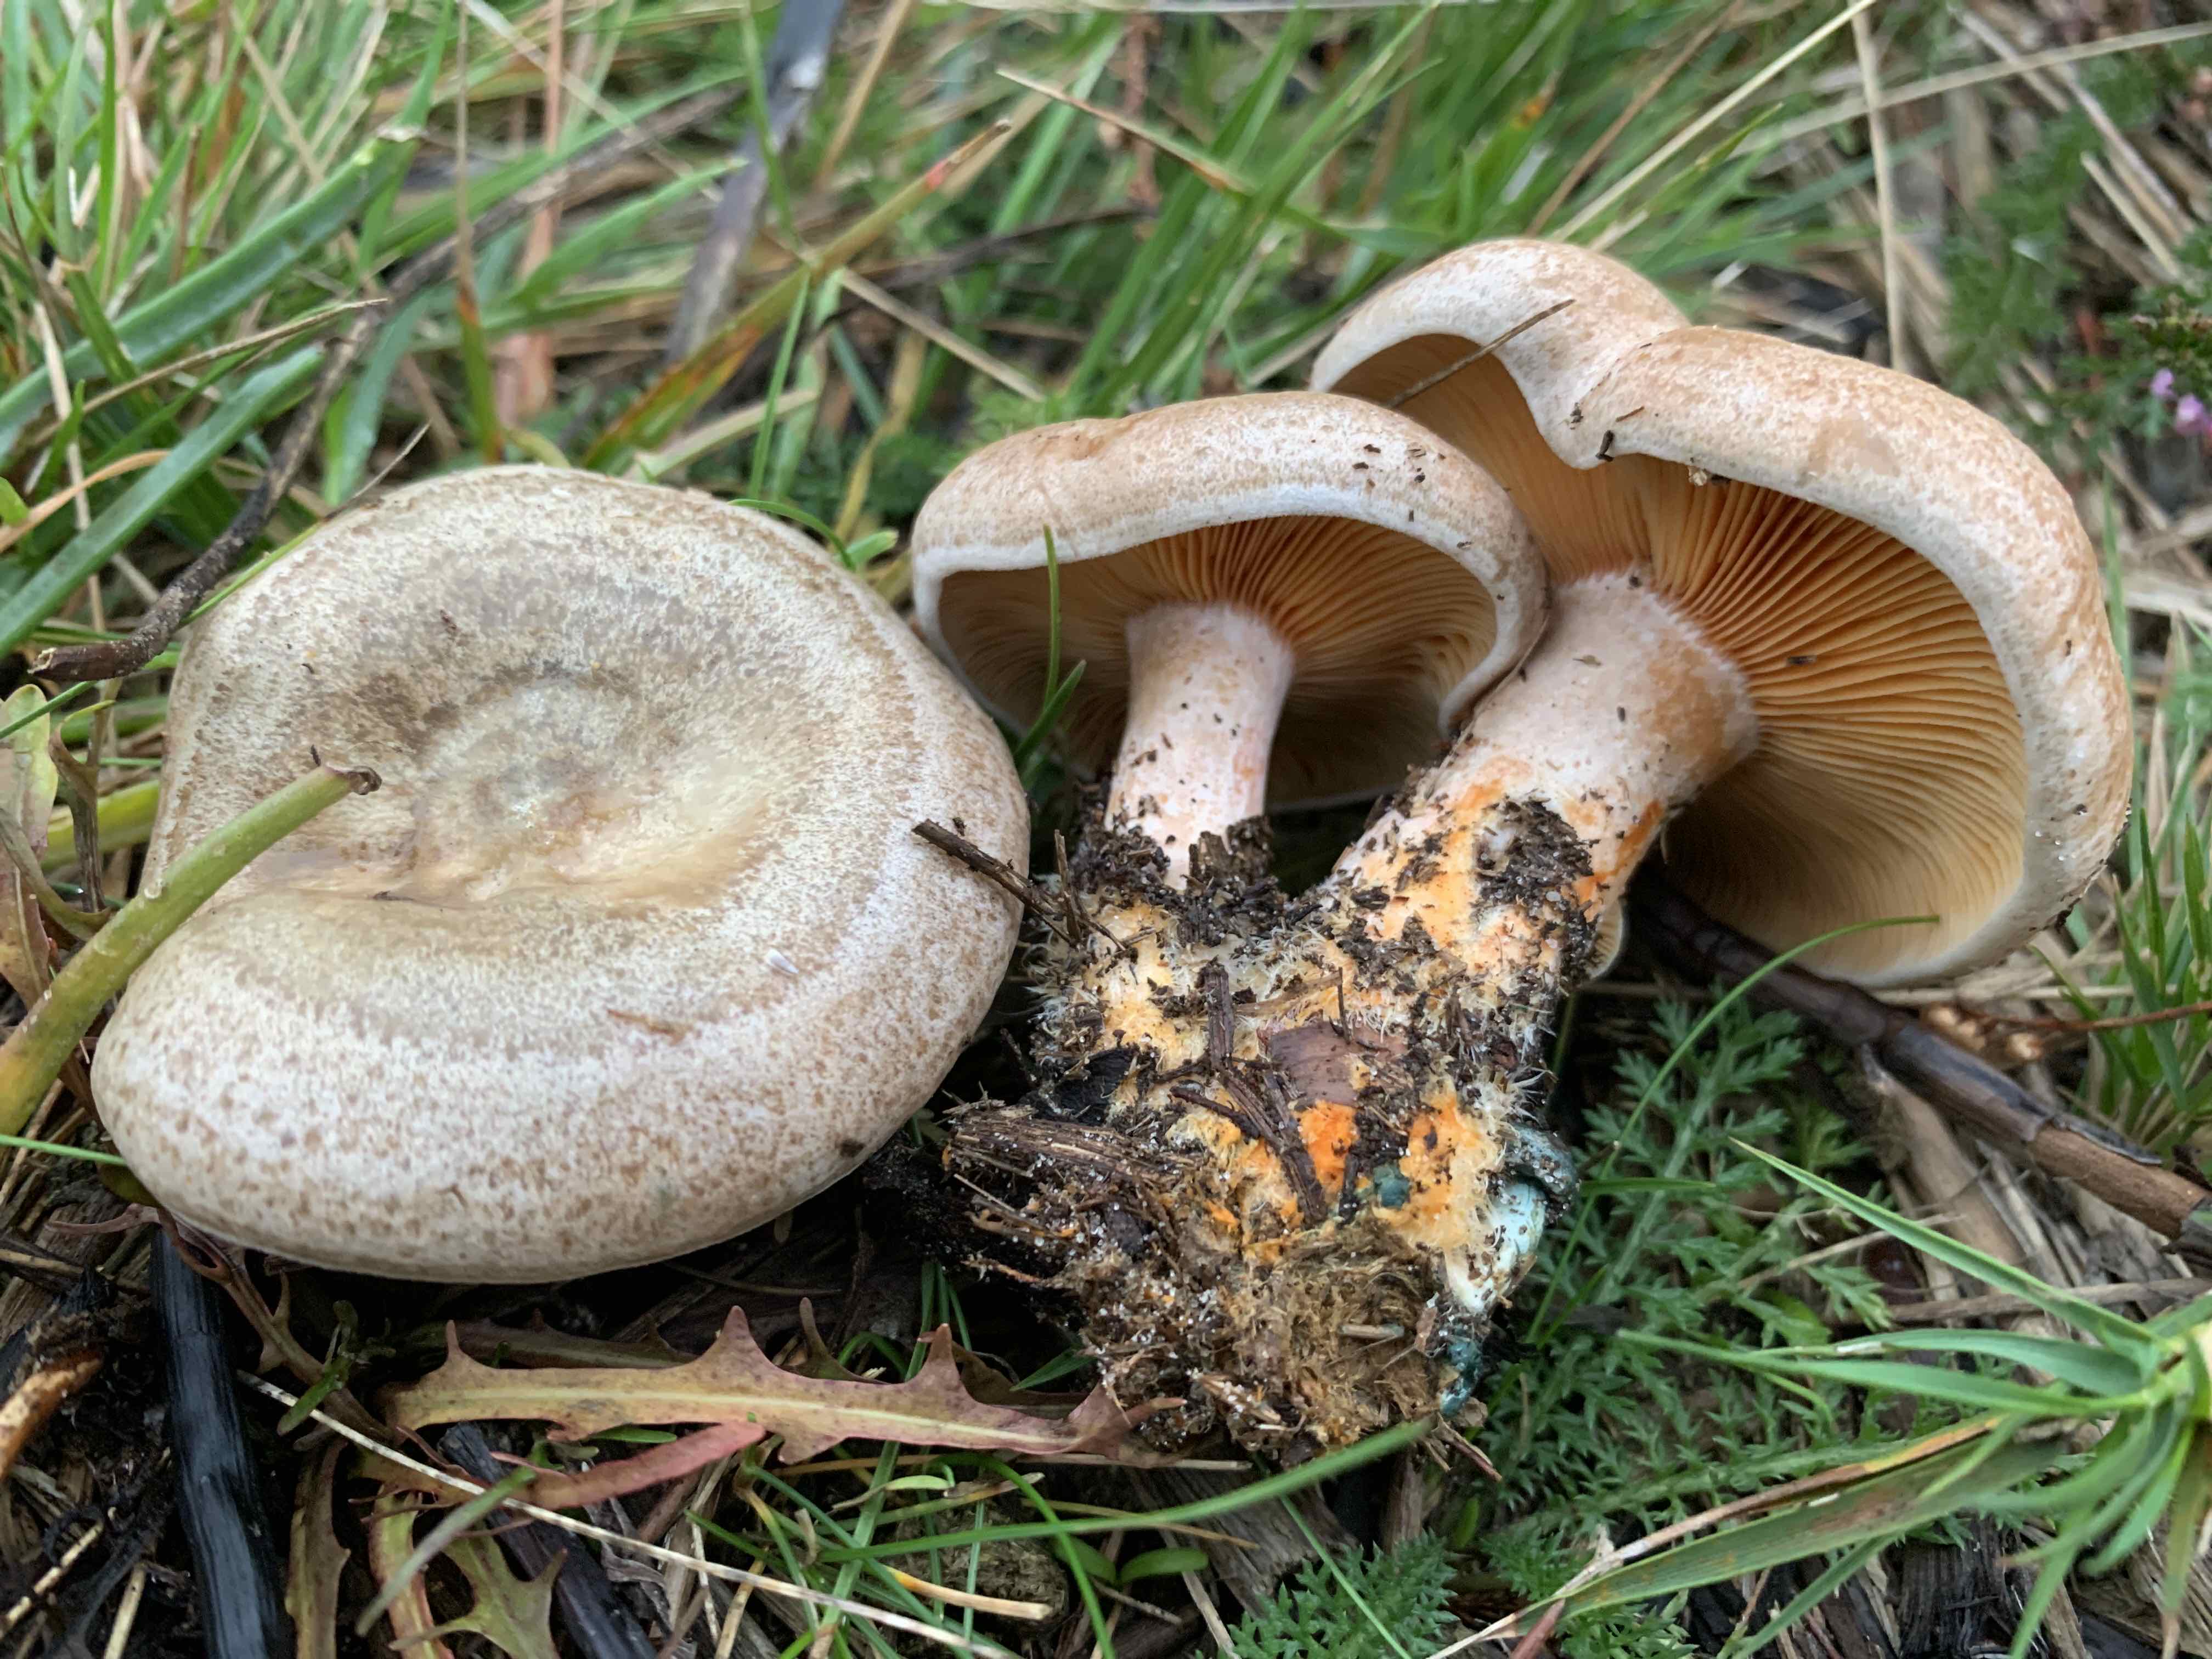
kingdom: Fungi
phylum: Basidiomycota
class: Agaricomycetes
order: Russulales
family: Russulaceae
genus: Lactarius
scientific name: Lactarius quieticolor
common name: tvefarvet mælkehat
